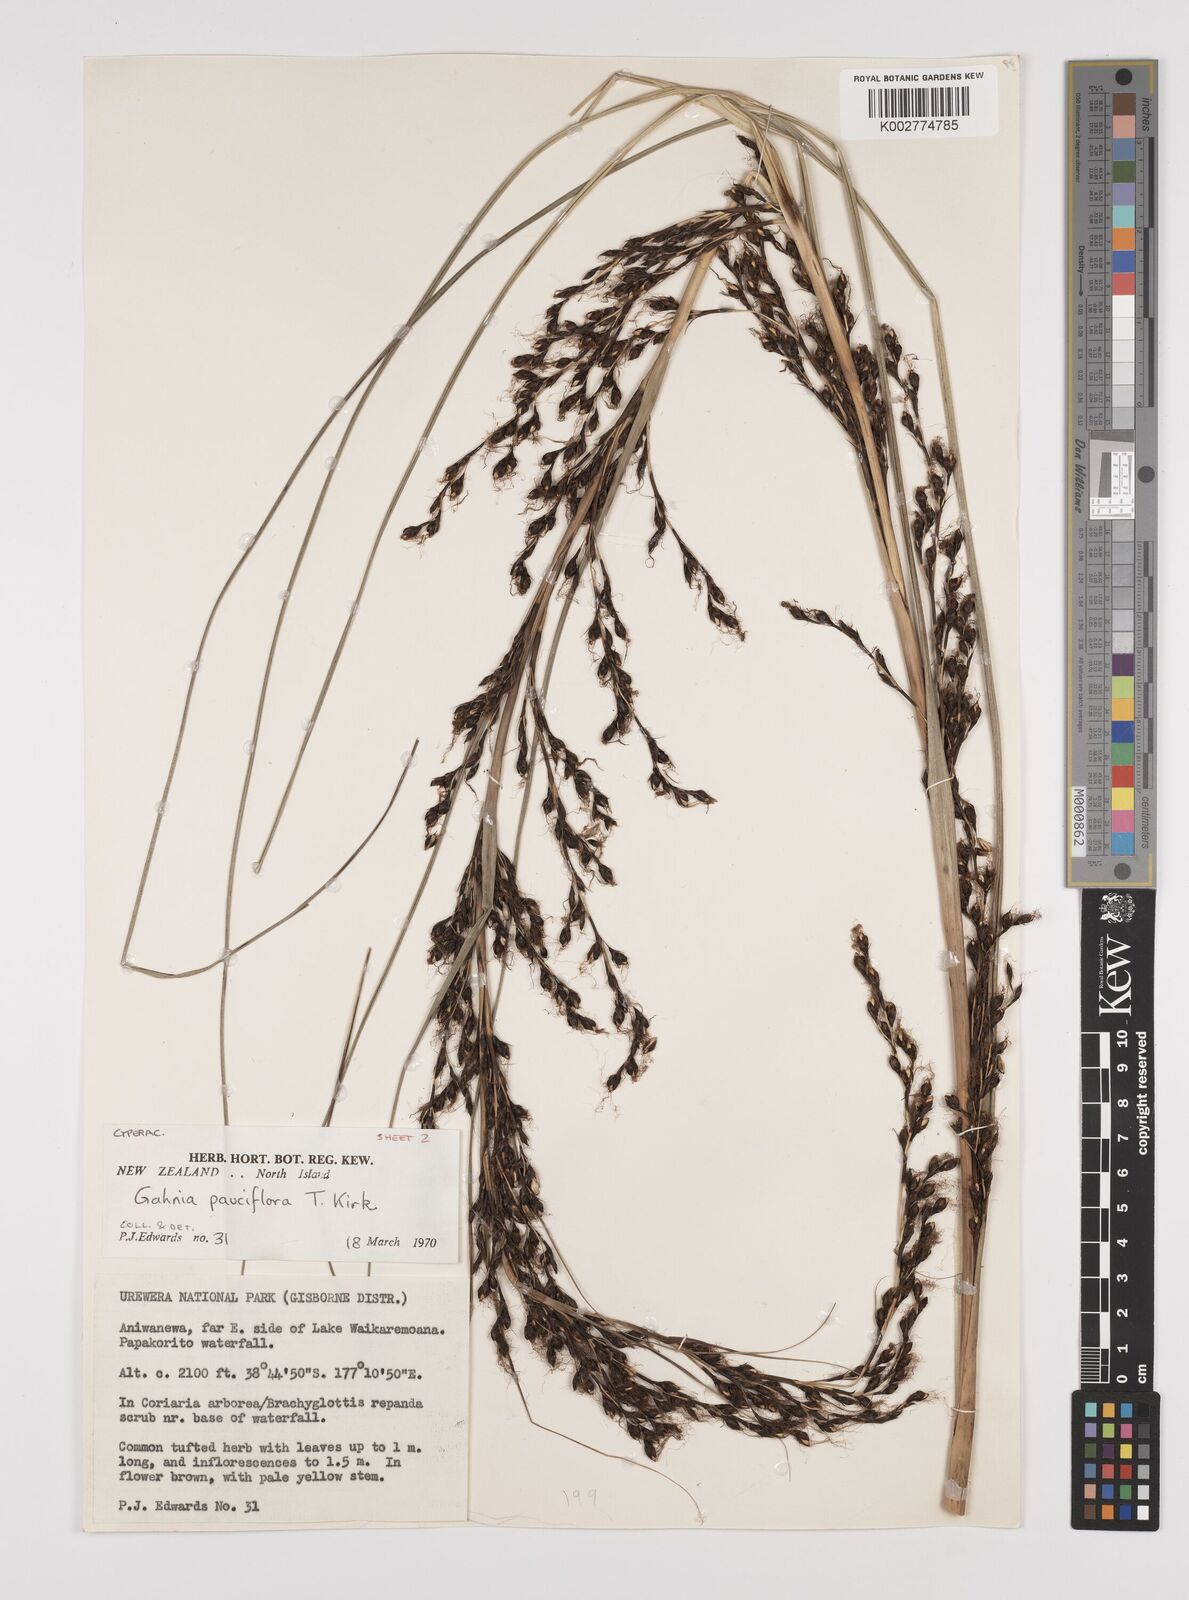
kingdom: Plantae
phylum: Tracheophyta
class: Liliopsida
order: Poales
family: Cyperaceae
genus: Gahnia
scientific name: Gahnia pauciflora
